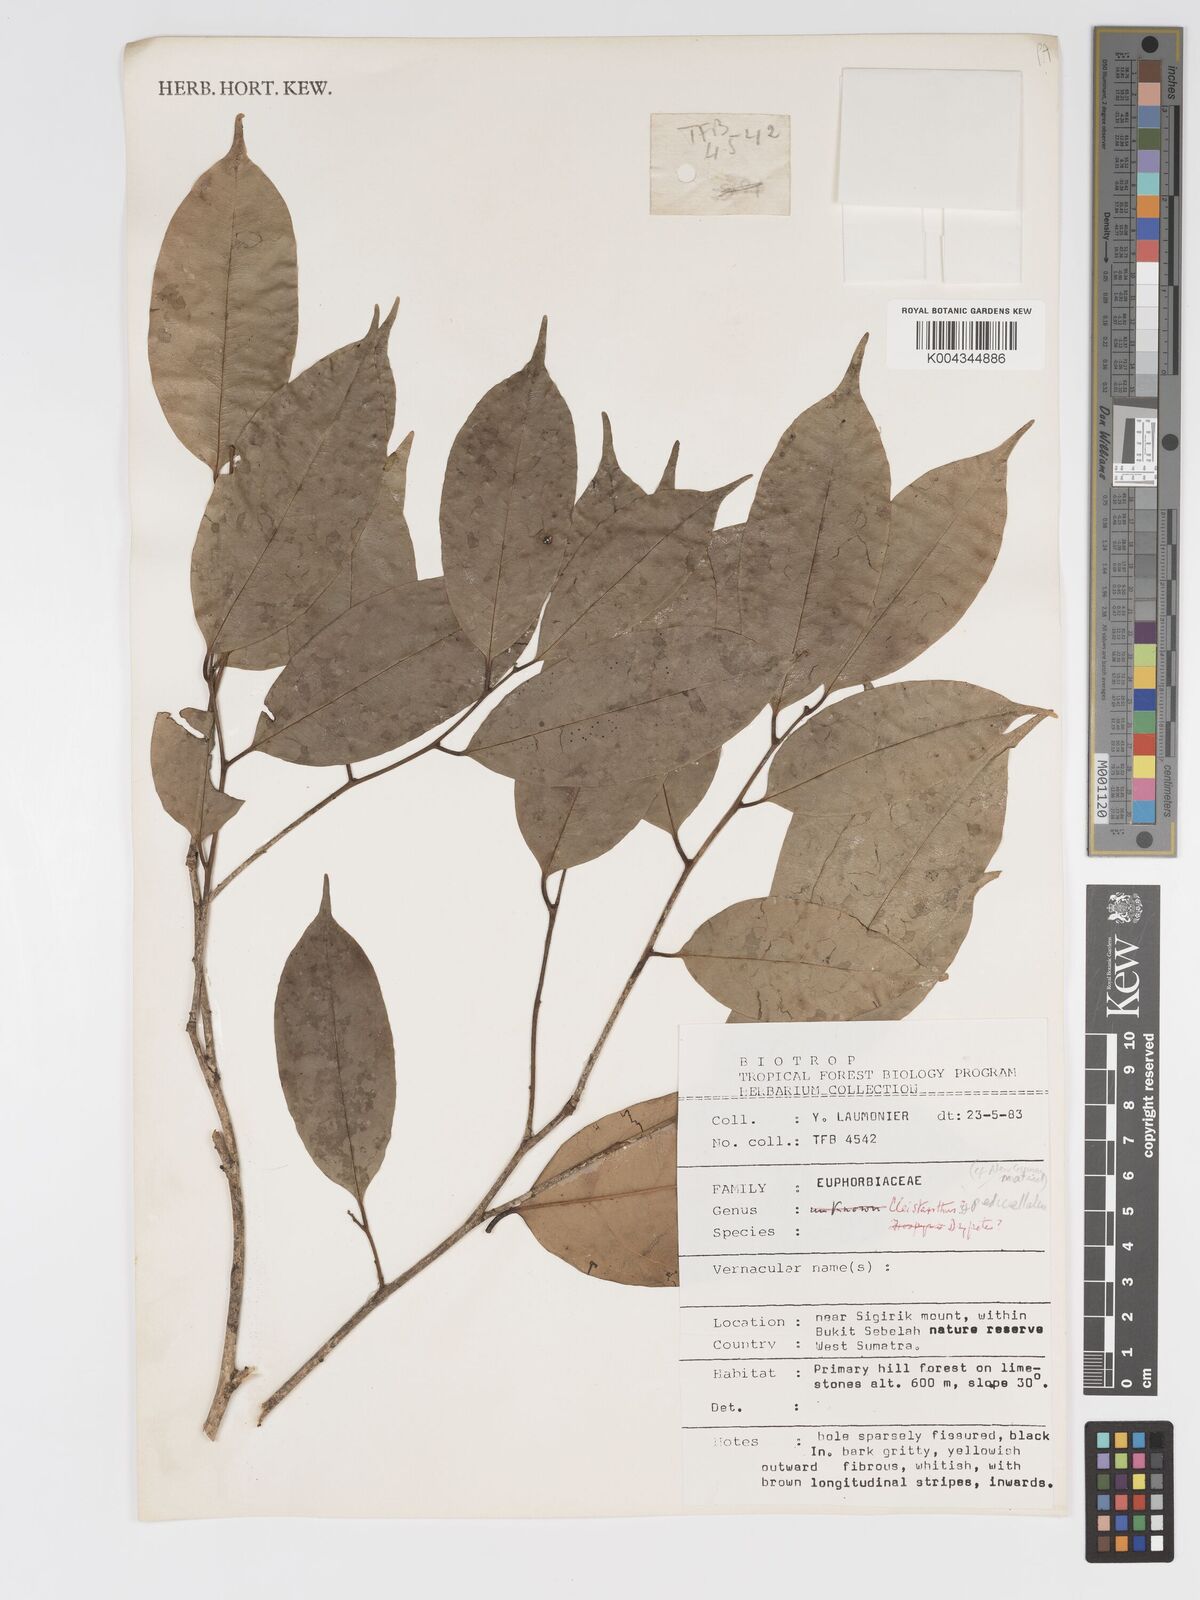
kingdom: Plantae
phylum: Tracheophyta
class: Magnoliopsida
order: Malpighiales
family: Putranjivaceae
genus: Drypetes
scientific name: Drypetes
